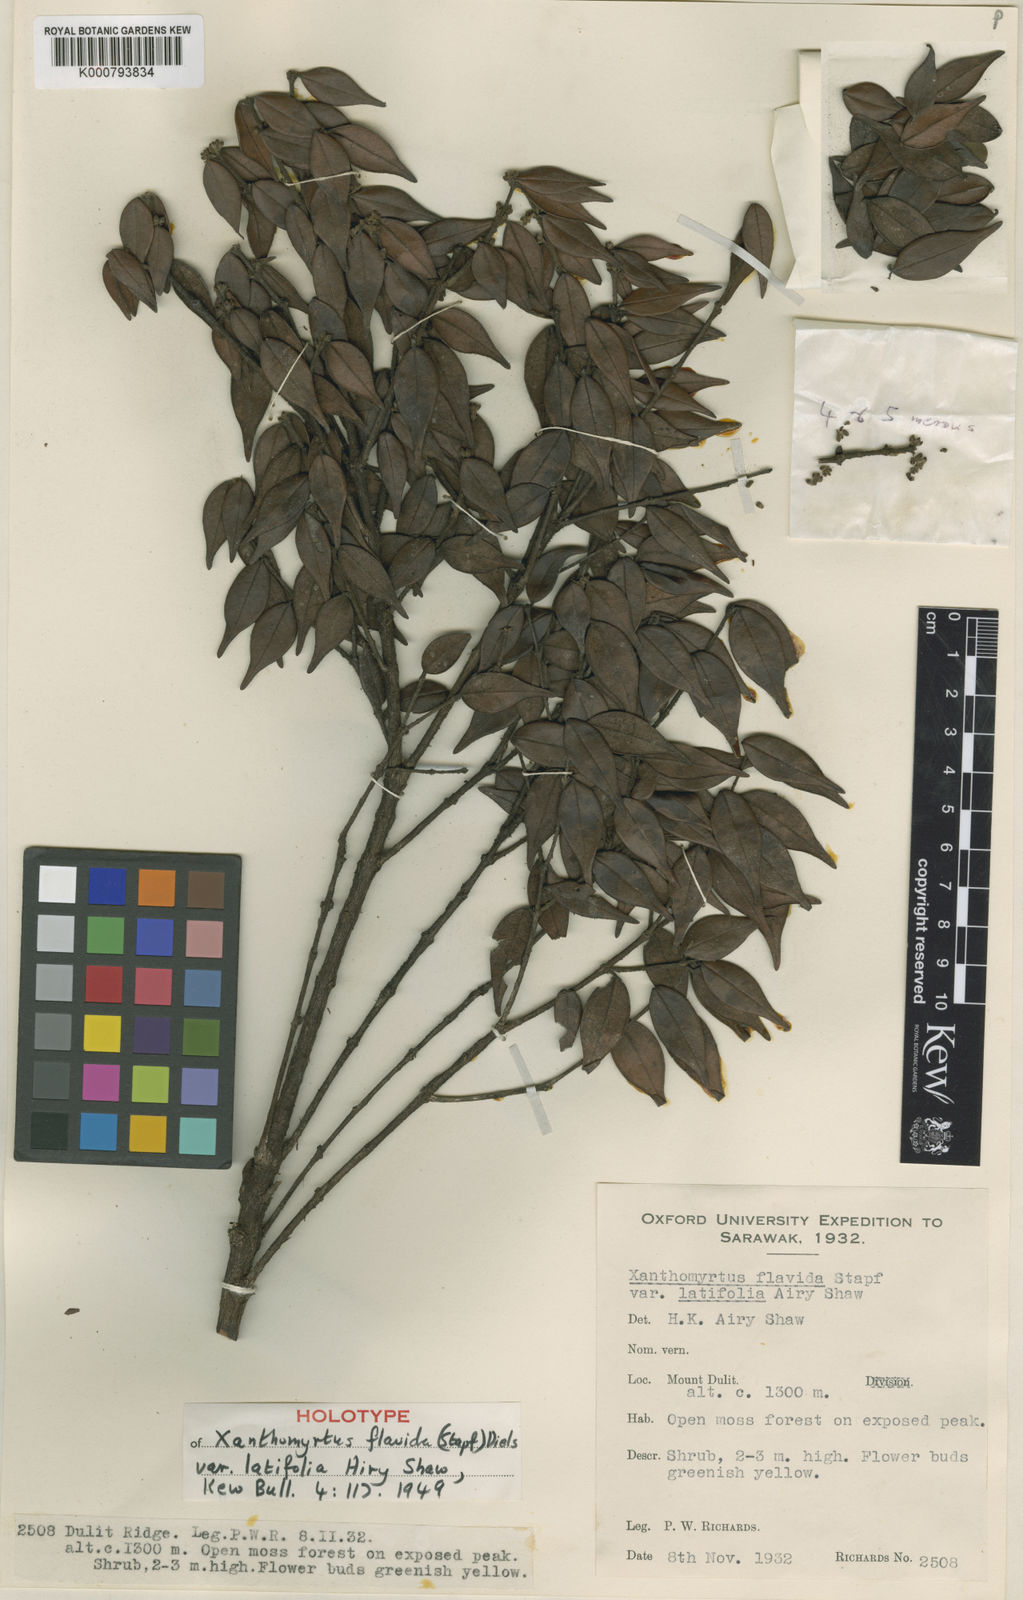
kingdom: Plantae
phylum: Tracheophyta
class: Magnoliopsida
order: Myrtales
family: Myrtaceae
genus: Xanthomyrtus
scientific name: Xanthomyrtus flavida
